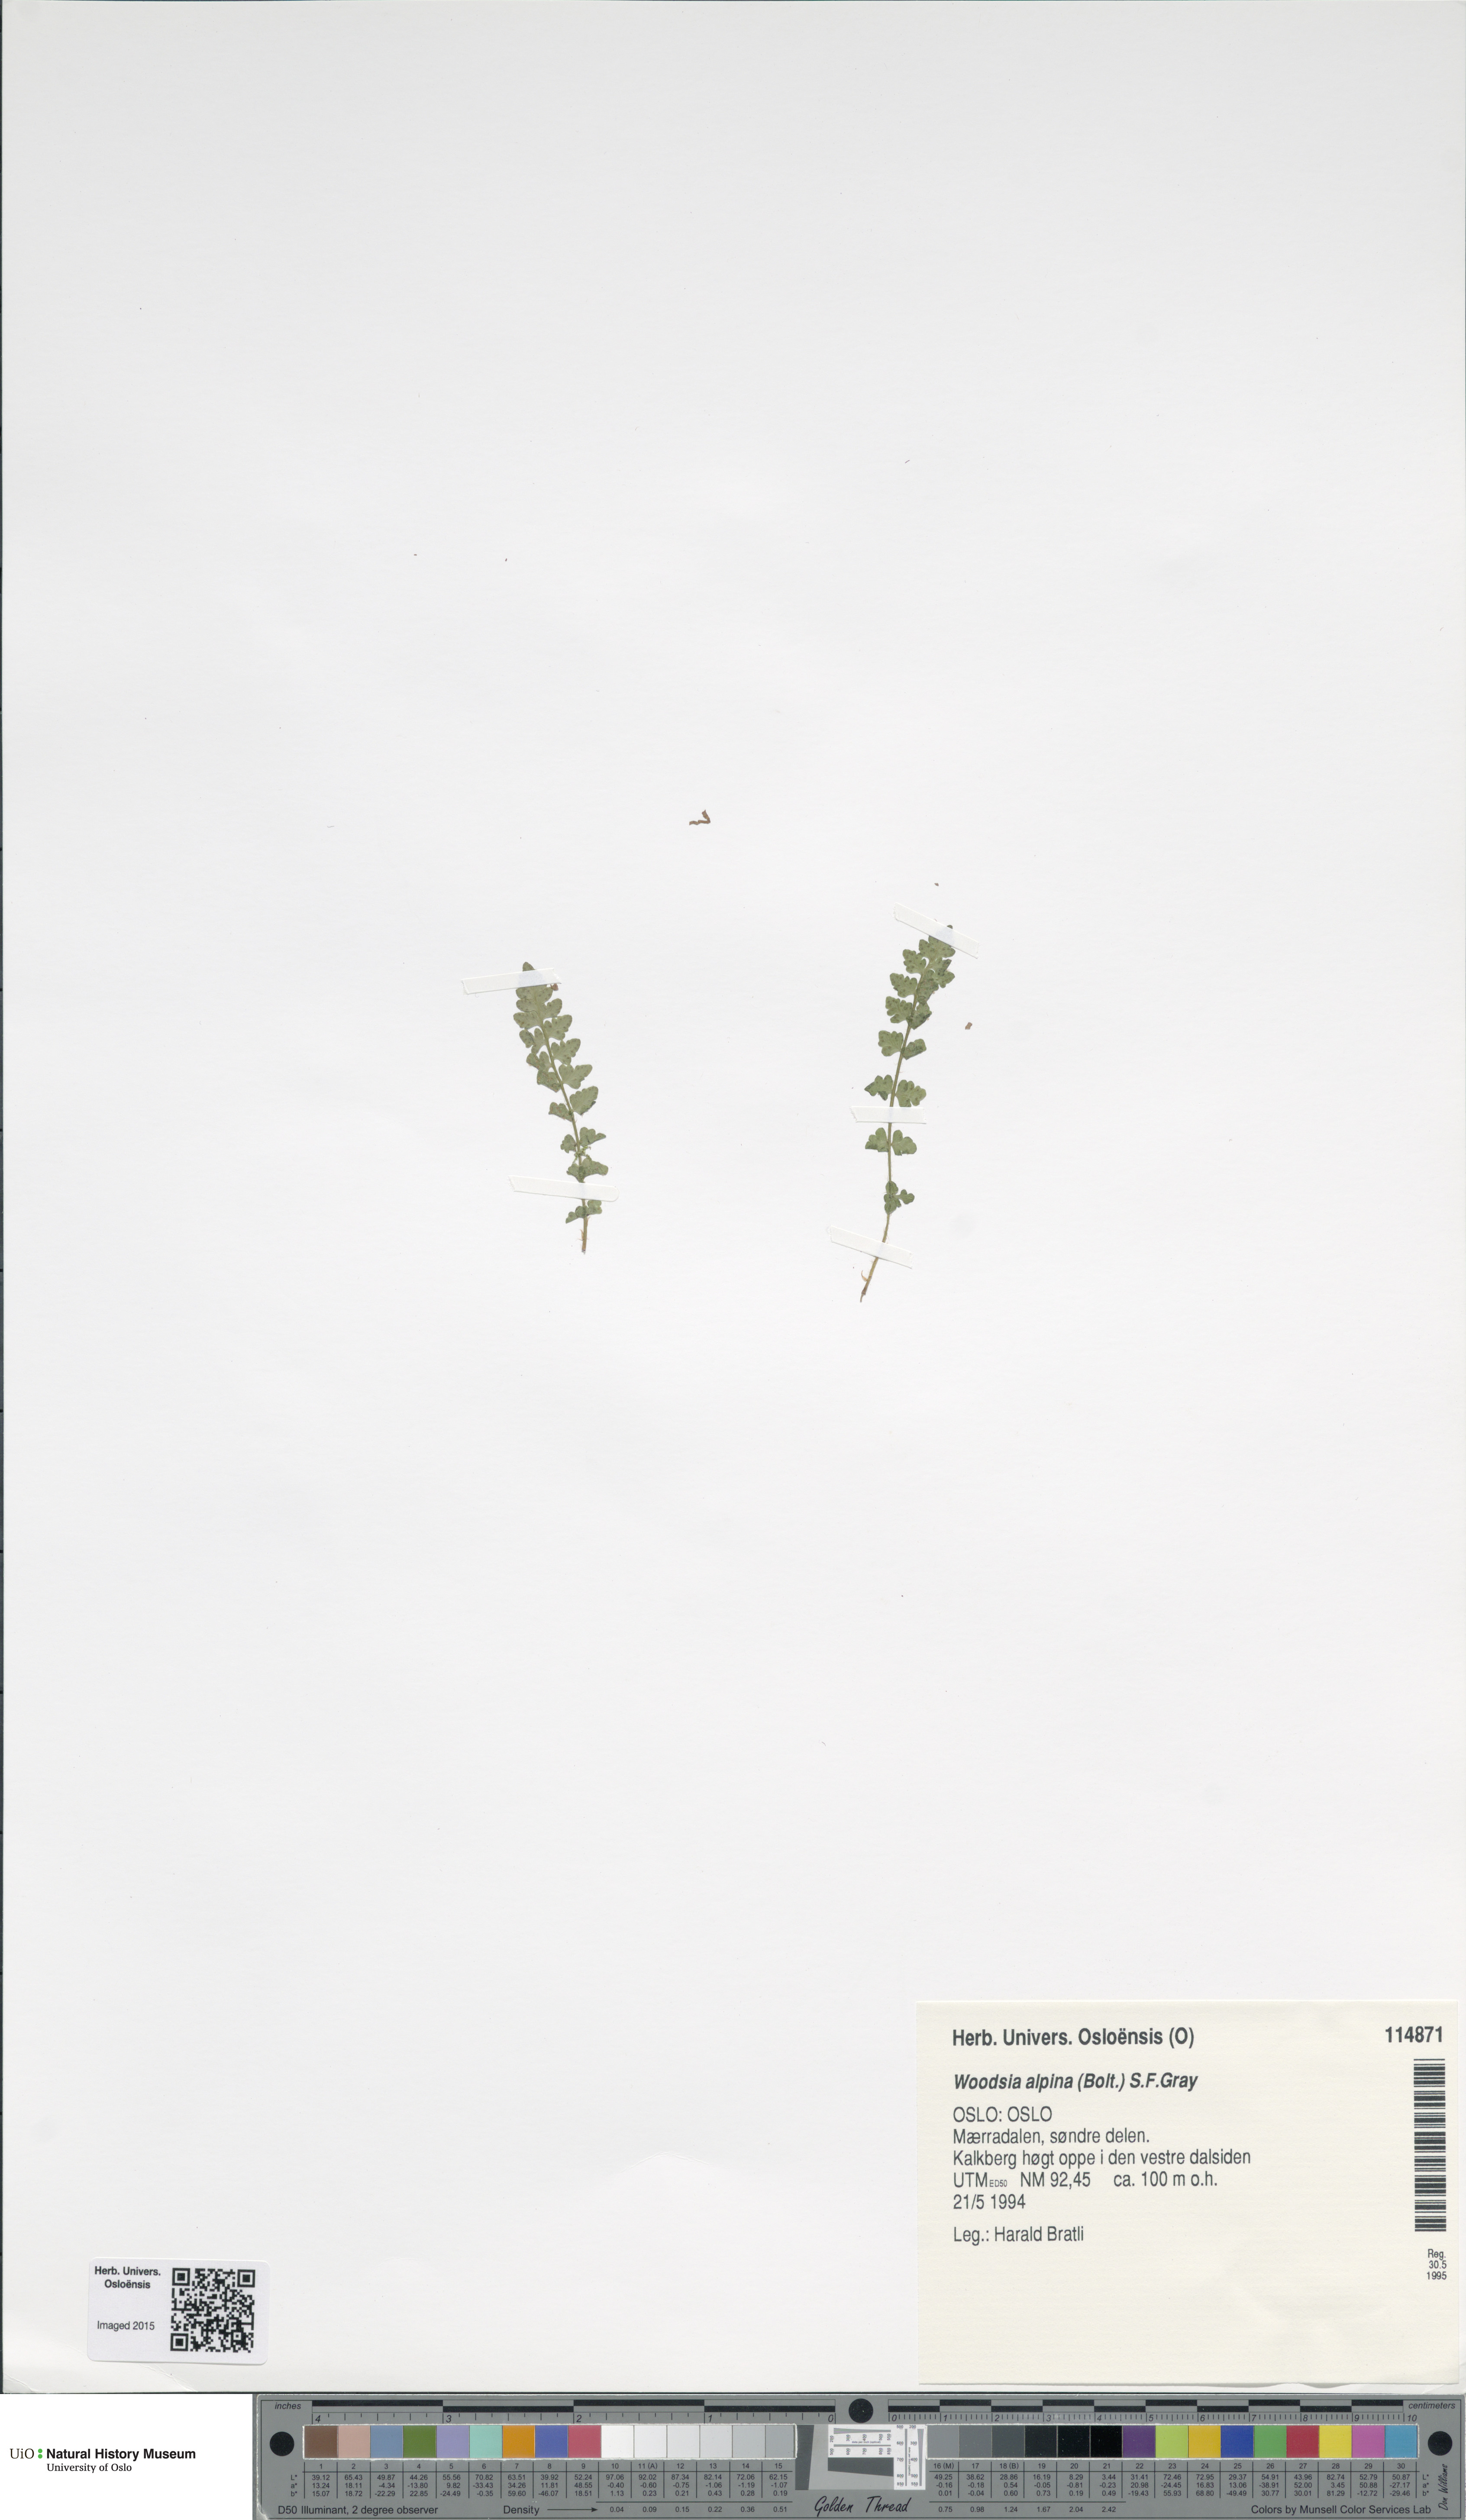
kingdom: Plantae
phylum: Tracheophyta
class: Polypodiopsida
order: Polypodiales
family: Woodsiaceae
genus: Woodsia
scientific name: Woodsia alpina
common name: Alpine woodsia
